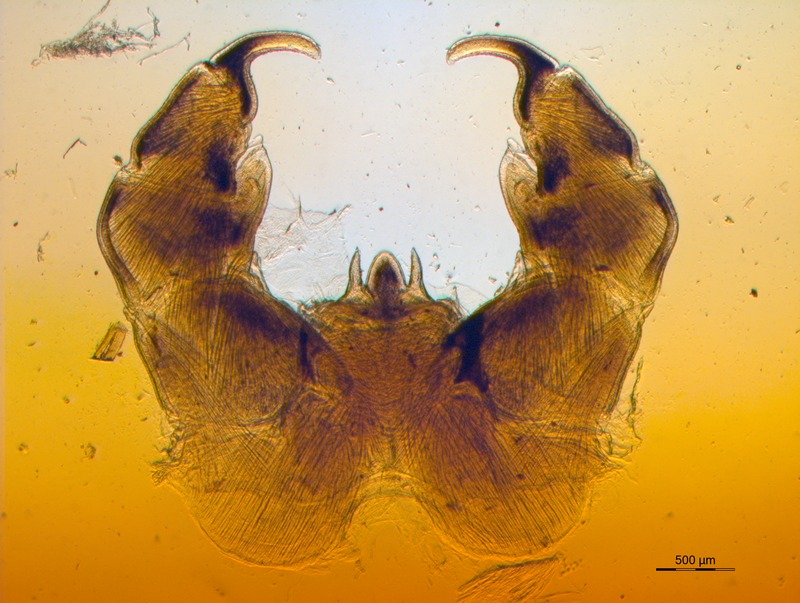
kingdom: Animalia
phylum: Arthropoda
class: Diplopoda
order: Glomerida
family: Glomeridae
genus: Onychoglomeris
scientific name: Onychoglomeris ferraniensis
